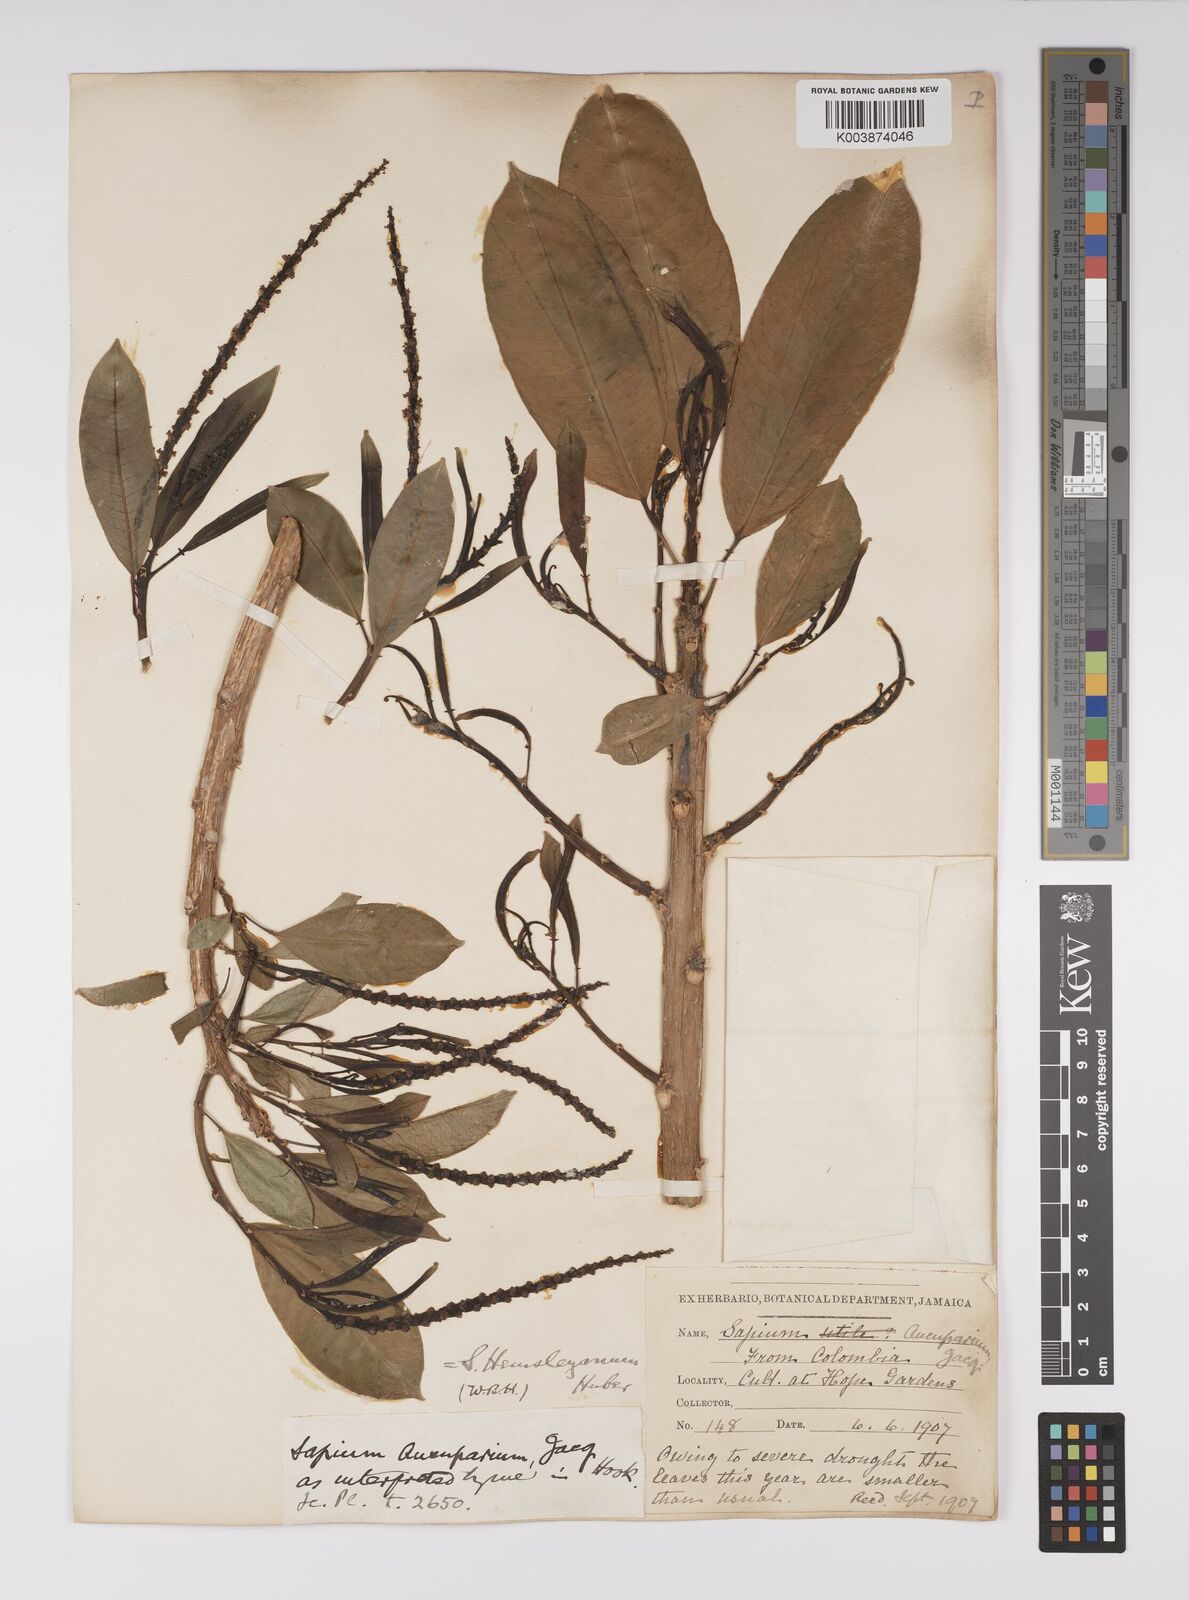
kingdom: Plantae
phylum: Tracheophyta
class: Magnoliopsida
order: Malpighiales
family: Euphorbiaceae
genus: Sapium
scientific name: Sapium glandulosum
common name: Milktree
